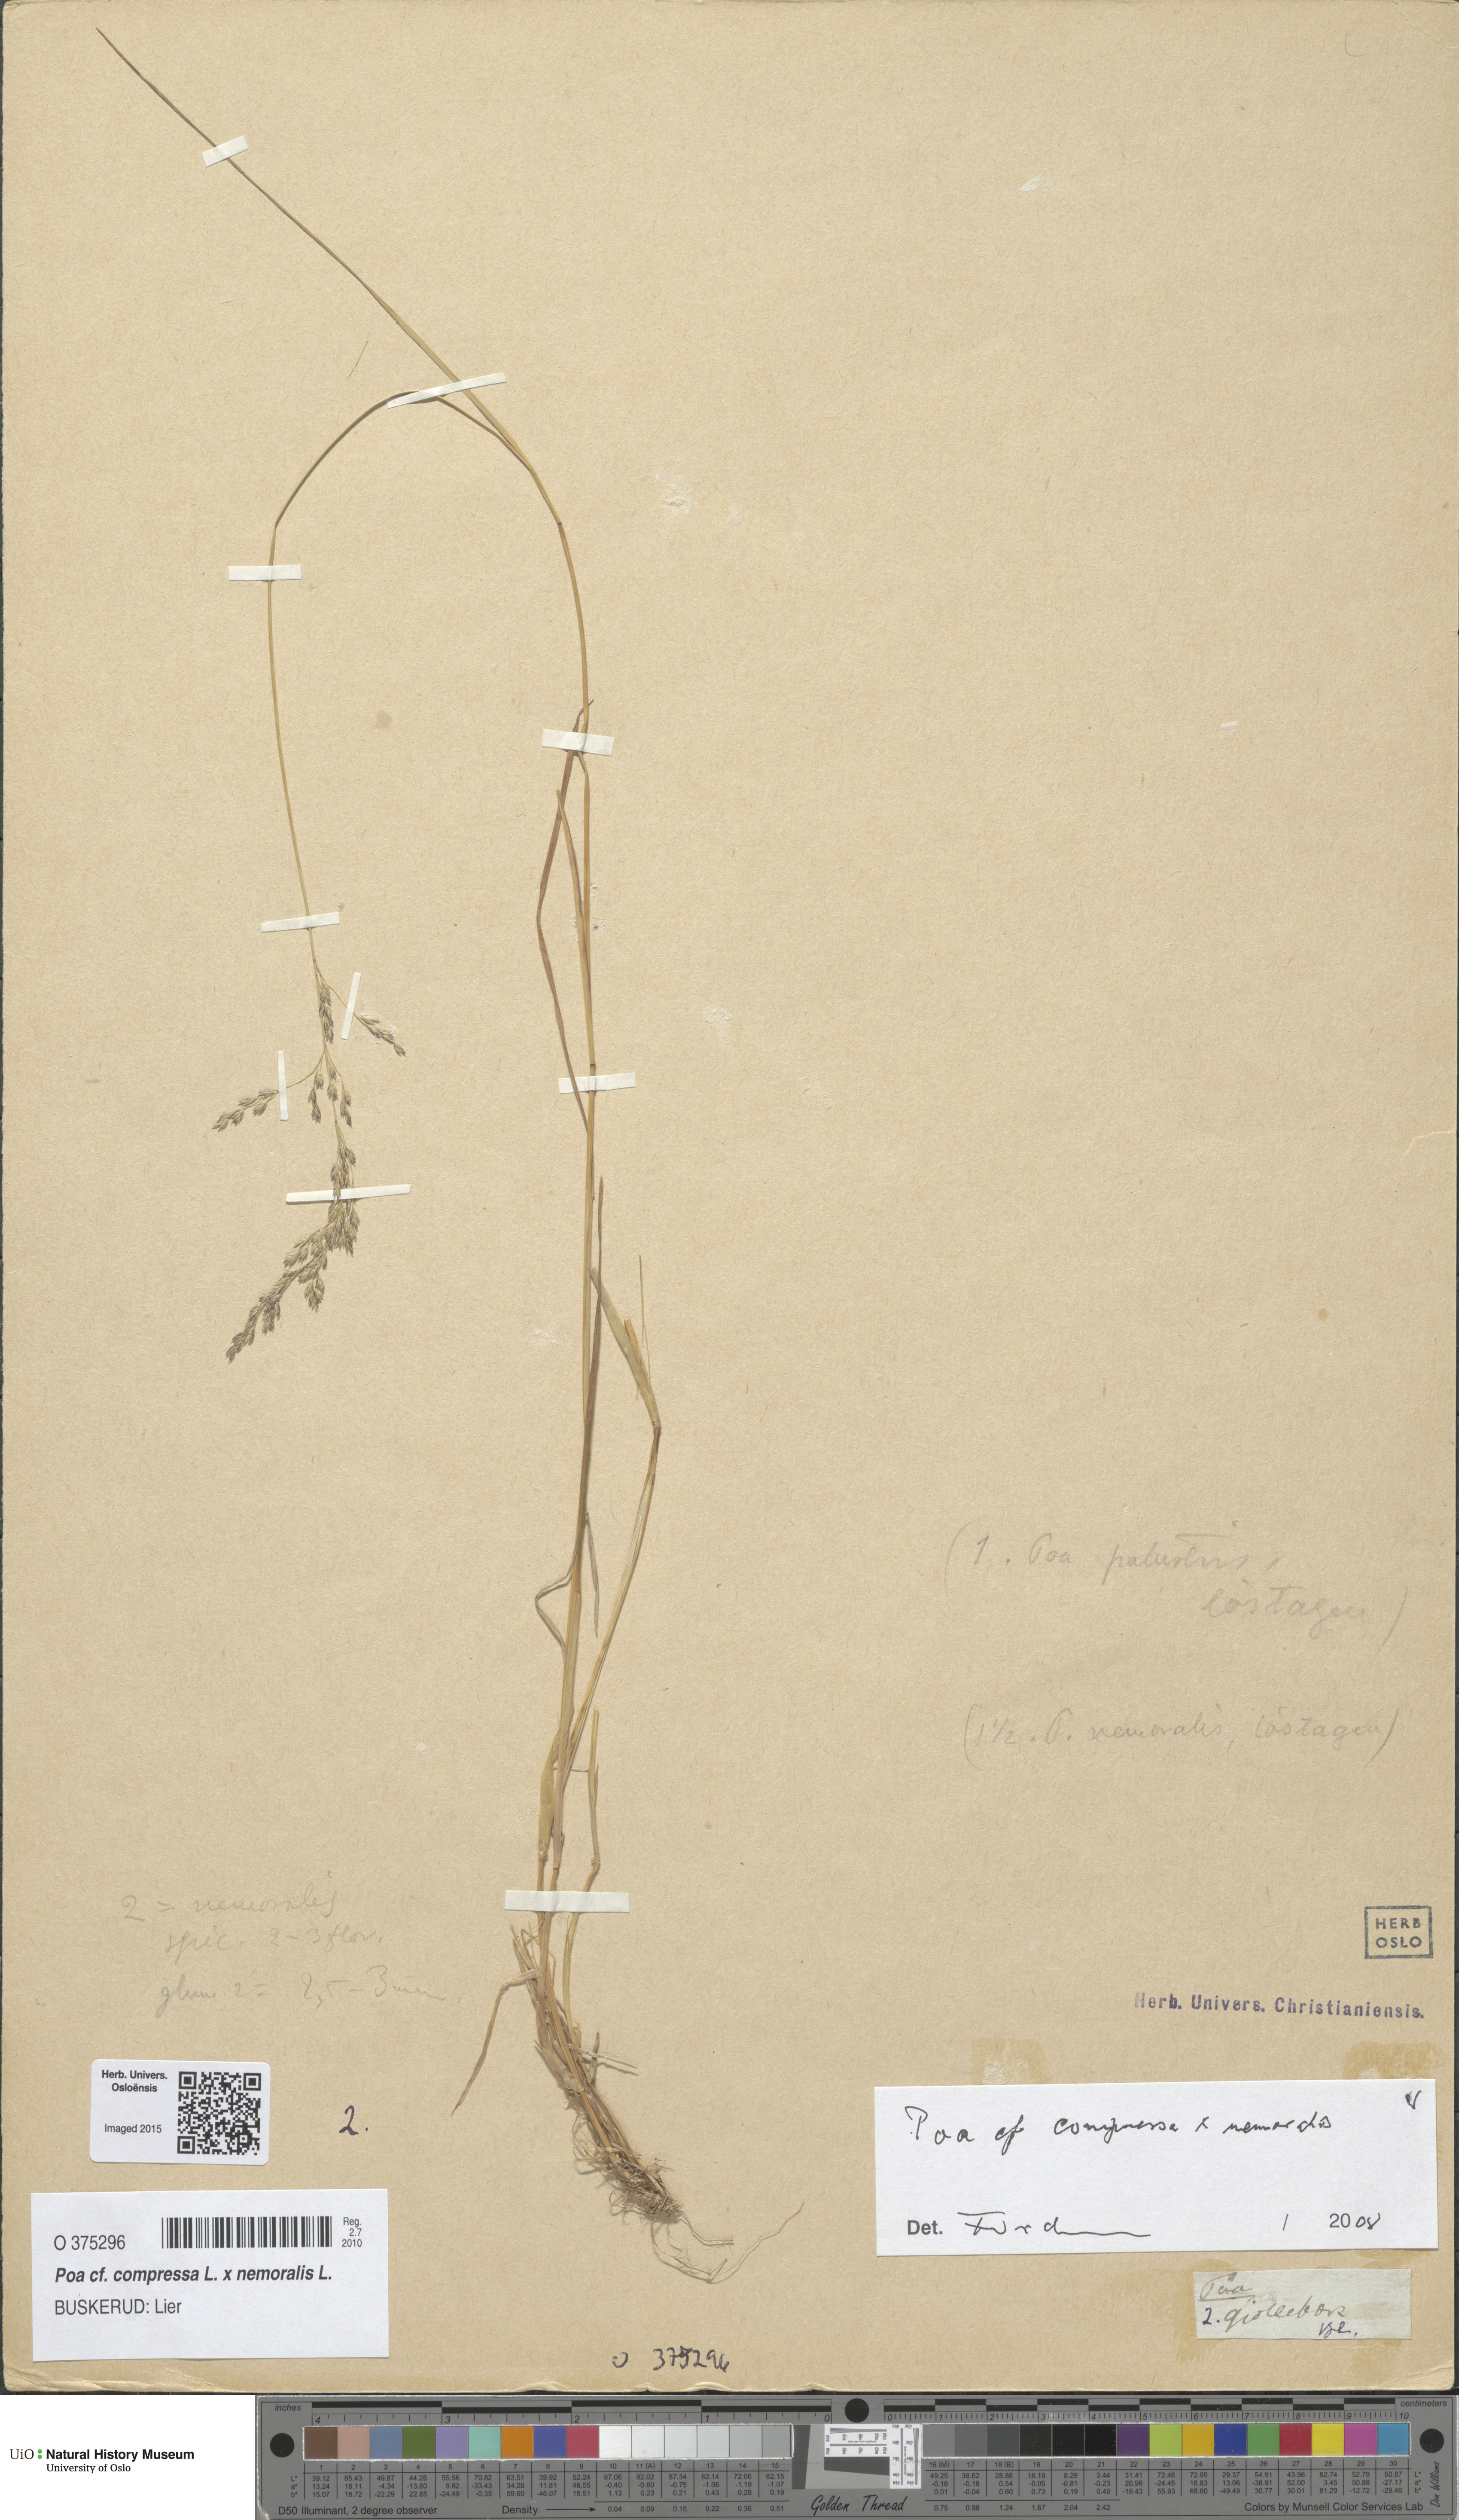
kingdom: Plantae
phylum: Tracheophyta
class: Liliopsida
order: Poales
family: Poaceae
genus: Poa
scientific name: Poa
